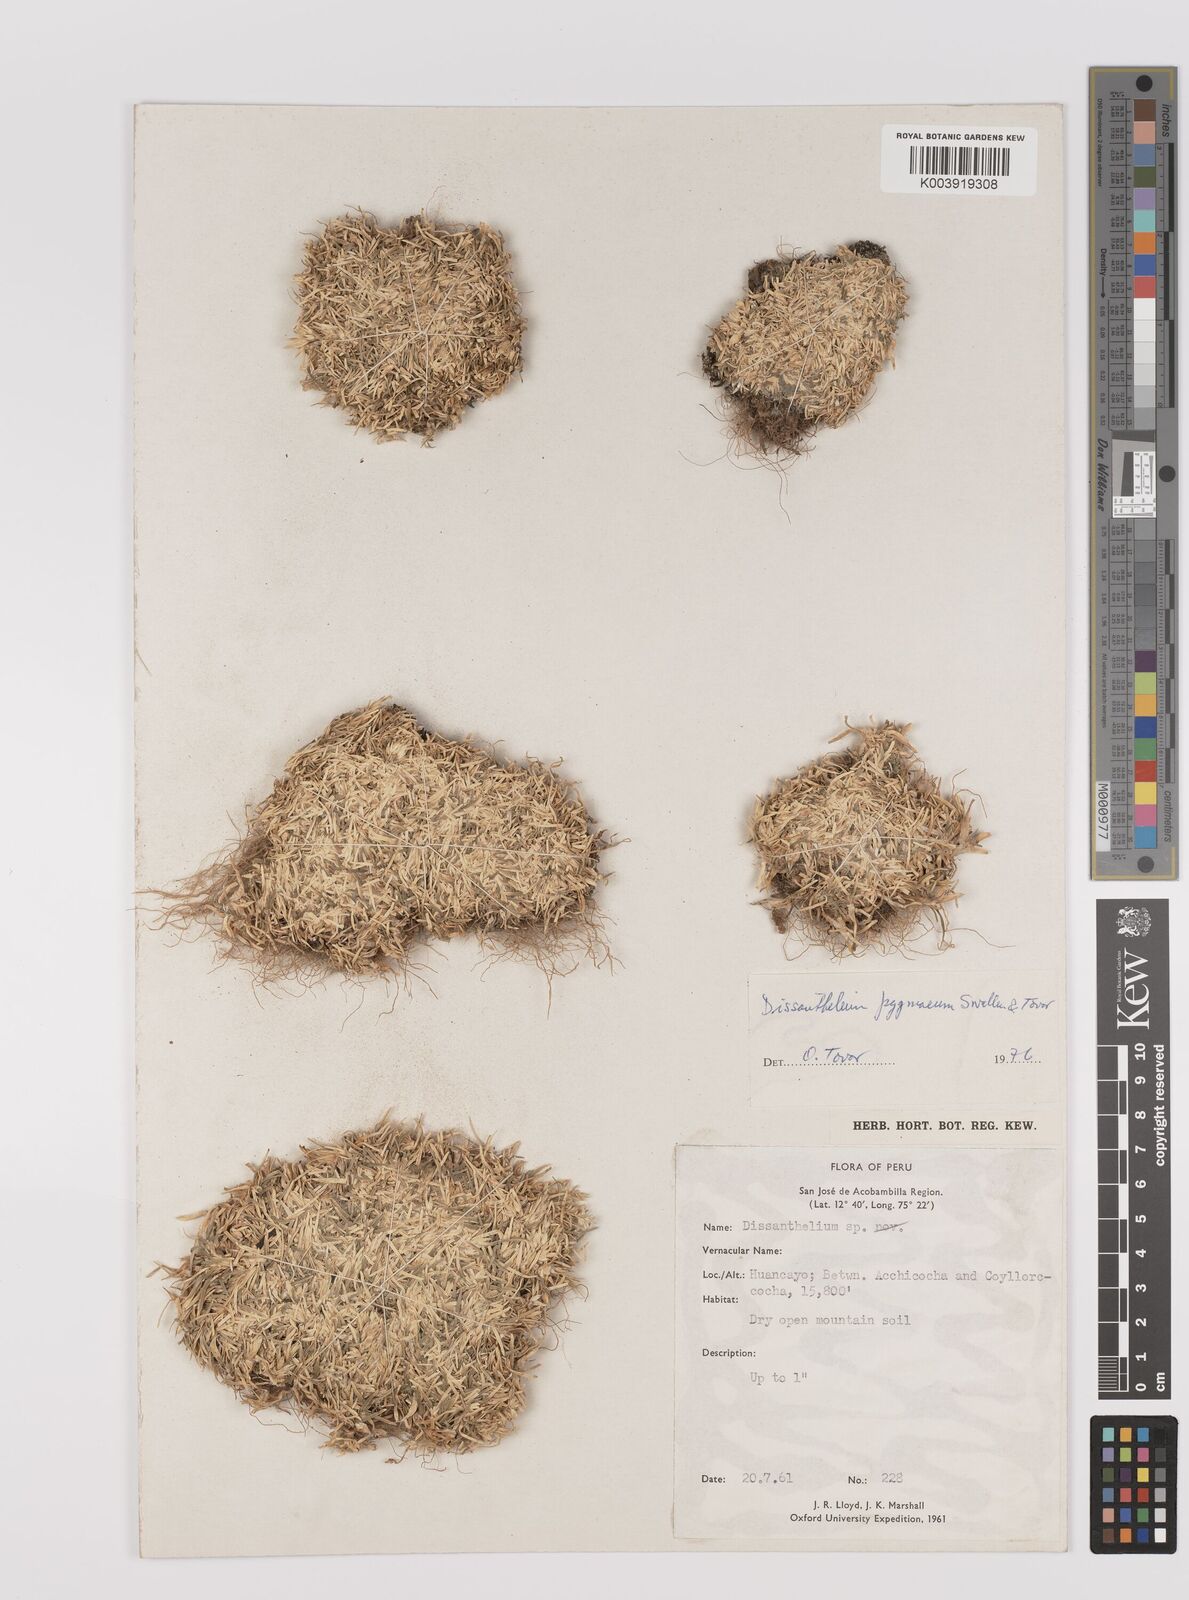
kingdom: Plantae
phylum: Tracheophyta
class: Liliopsida
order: Poales
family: Poaceae
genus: Poa
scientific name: Poa deminuta
